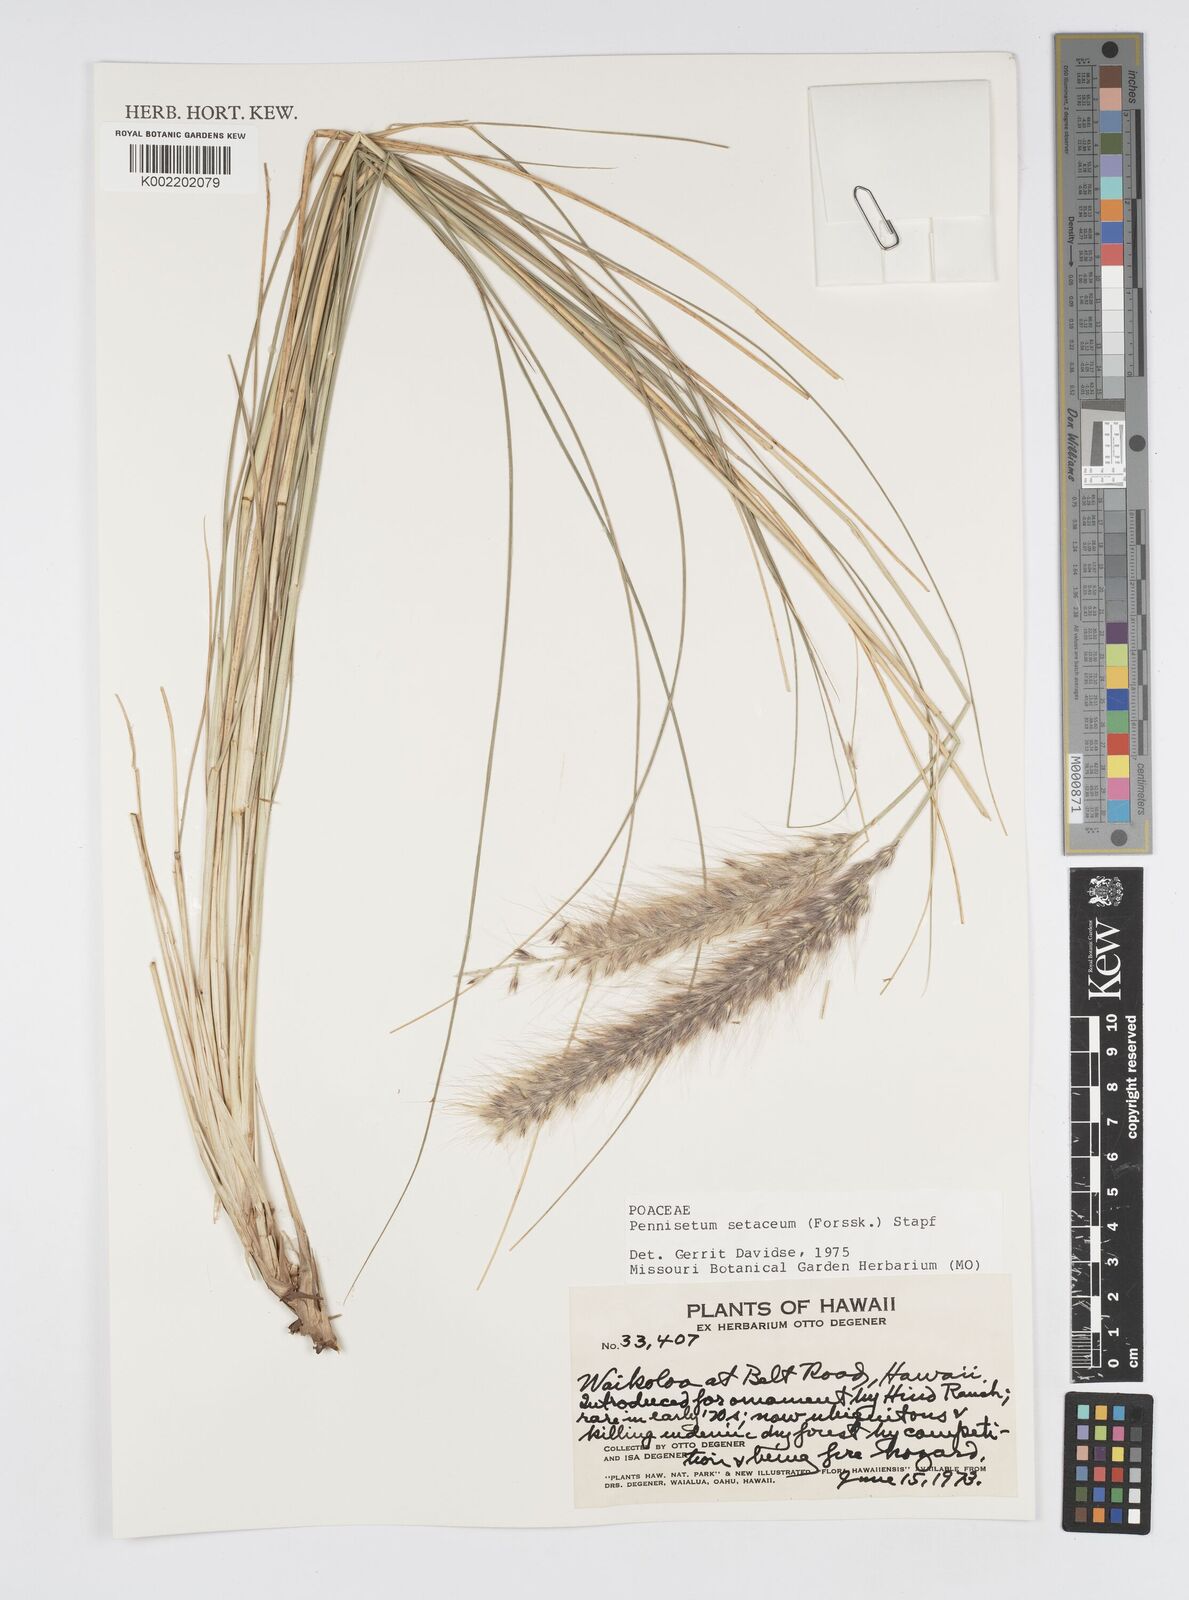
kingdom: Plantae
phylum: Tracheophyta
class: Liliopsida
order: Poales
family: Poaceae
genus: Cenchrus
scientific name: Cenchrus setaceus
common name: Crimson fountaingrass
